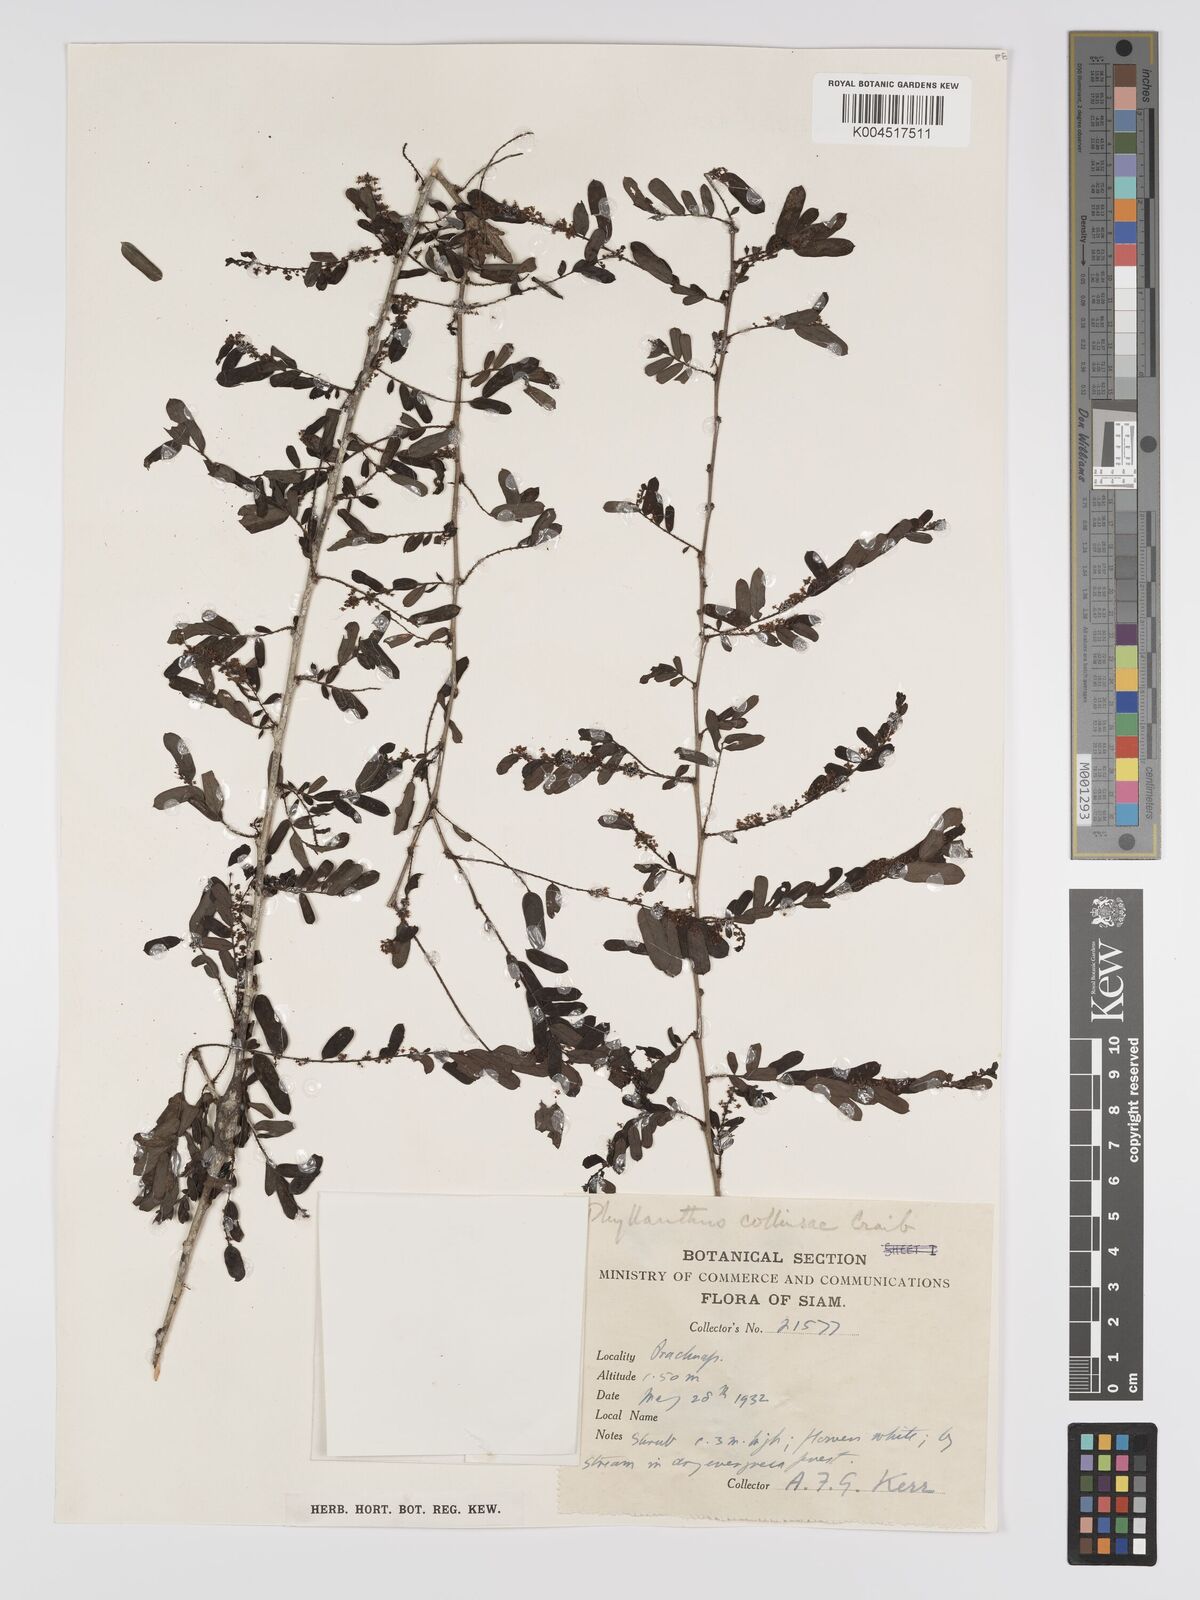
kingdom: Plantae
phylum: Tracheophyta
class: Magnoliopsida
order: Malpighiales
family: Phyllanthaceae
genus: Phyllanthus
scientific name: Phyllanthus collinsiae
